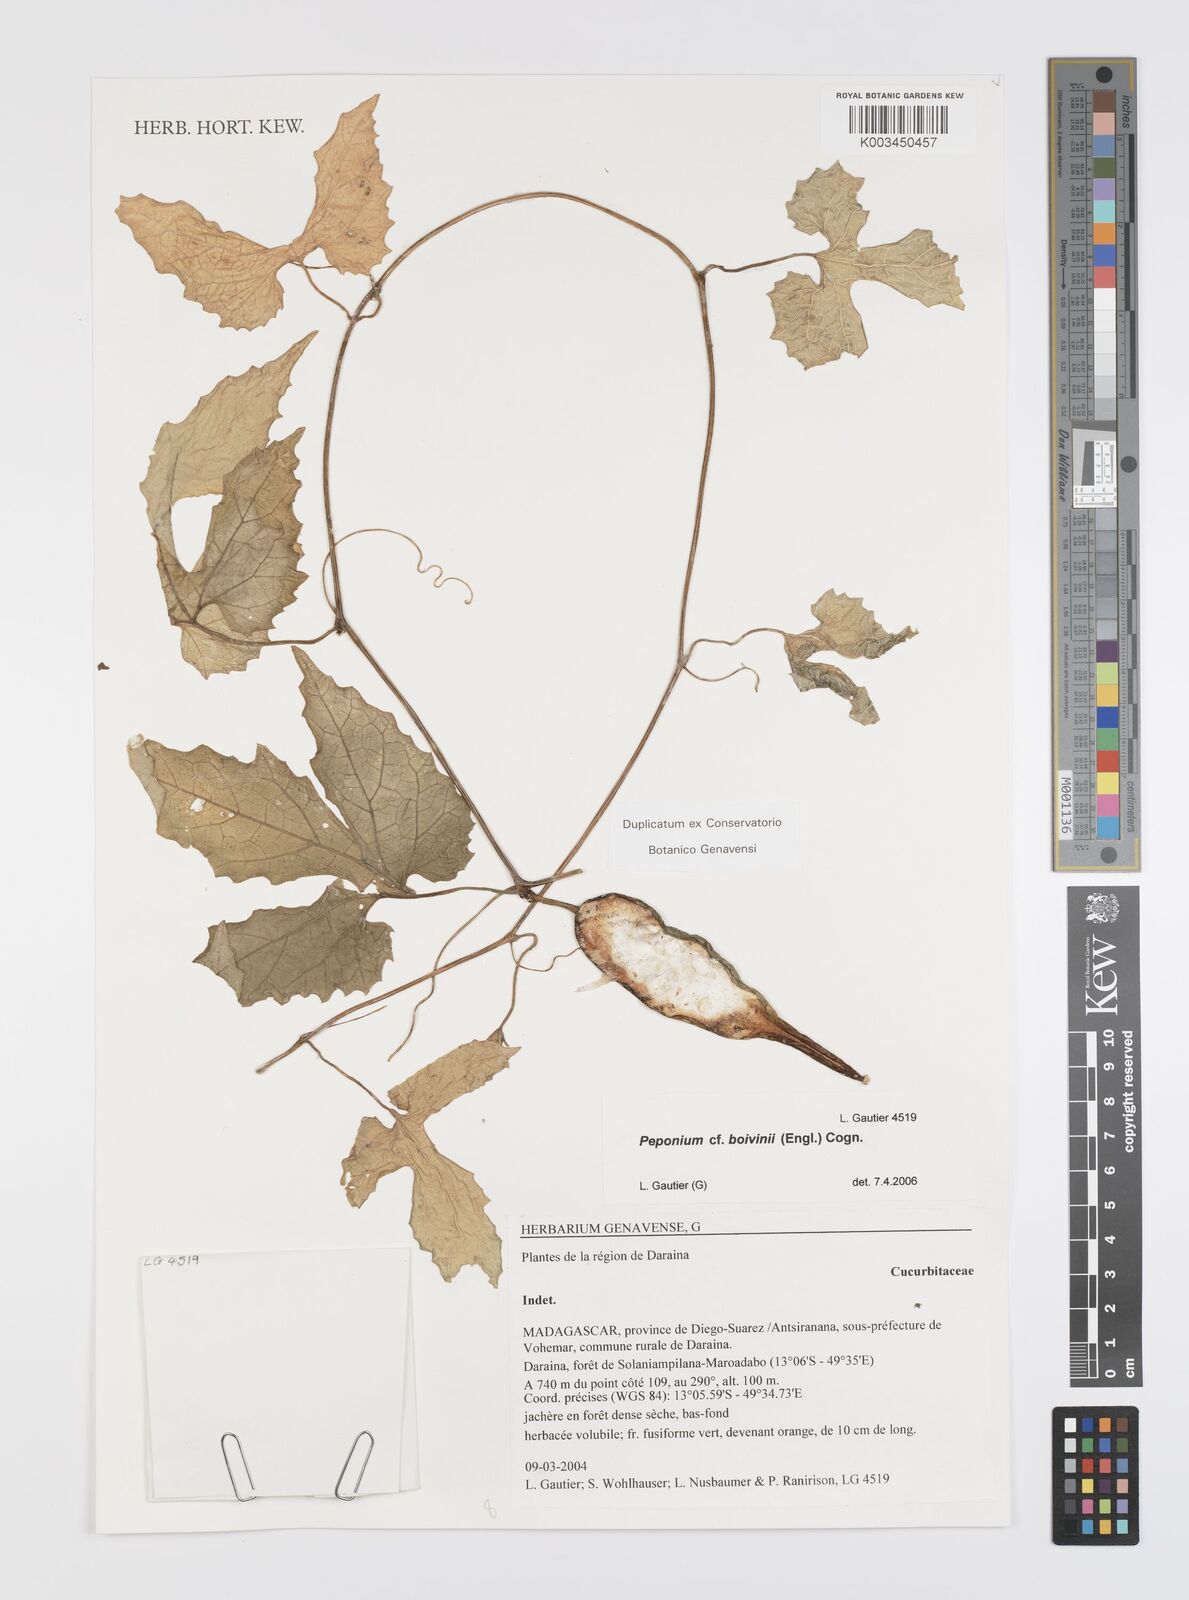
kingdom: Plantae
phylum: Tracheophyta
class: Magnoliopsida
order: Cucurbitales
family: Cucurbitaceae
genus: Peponium
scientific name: Peponium boivinii
